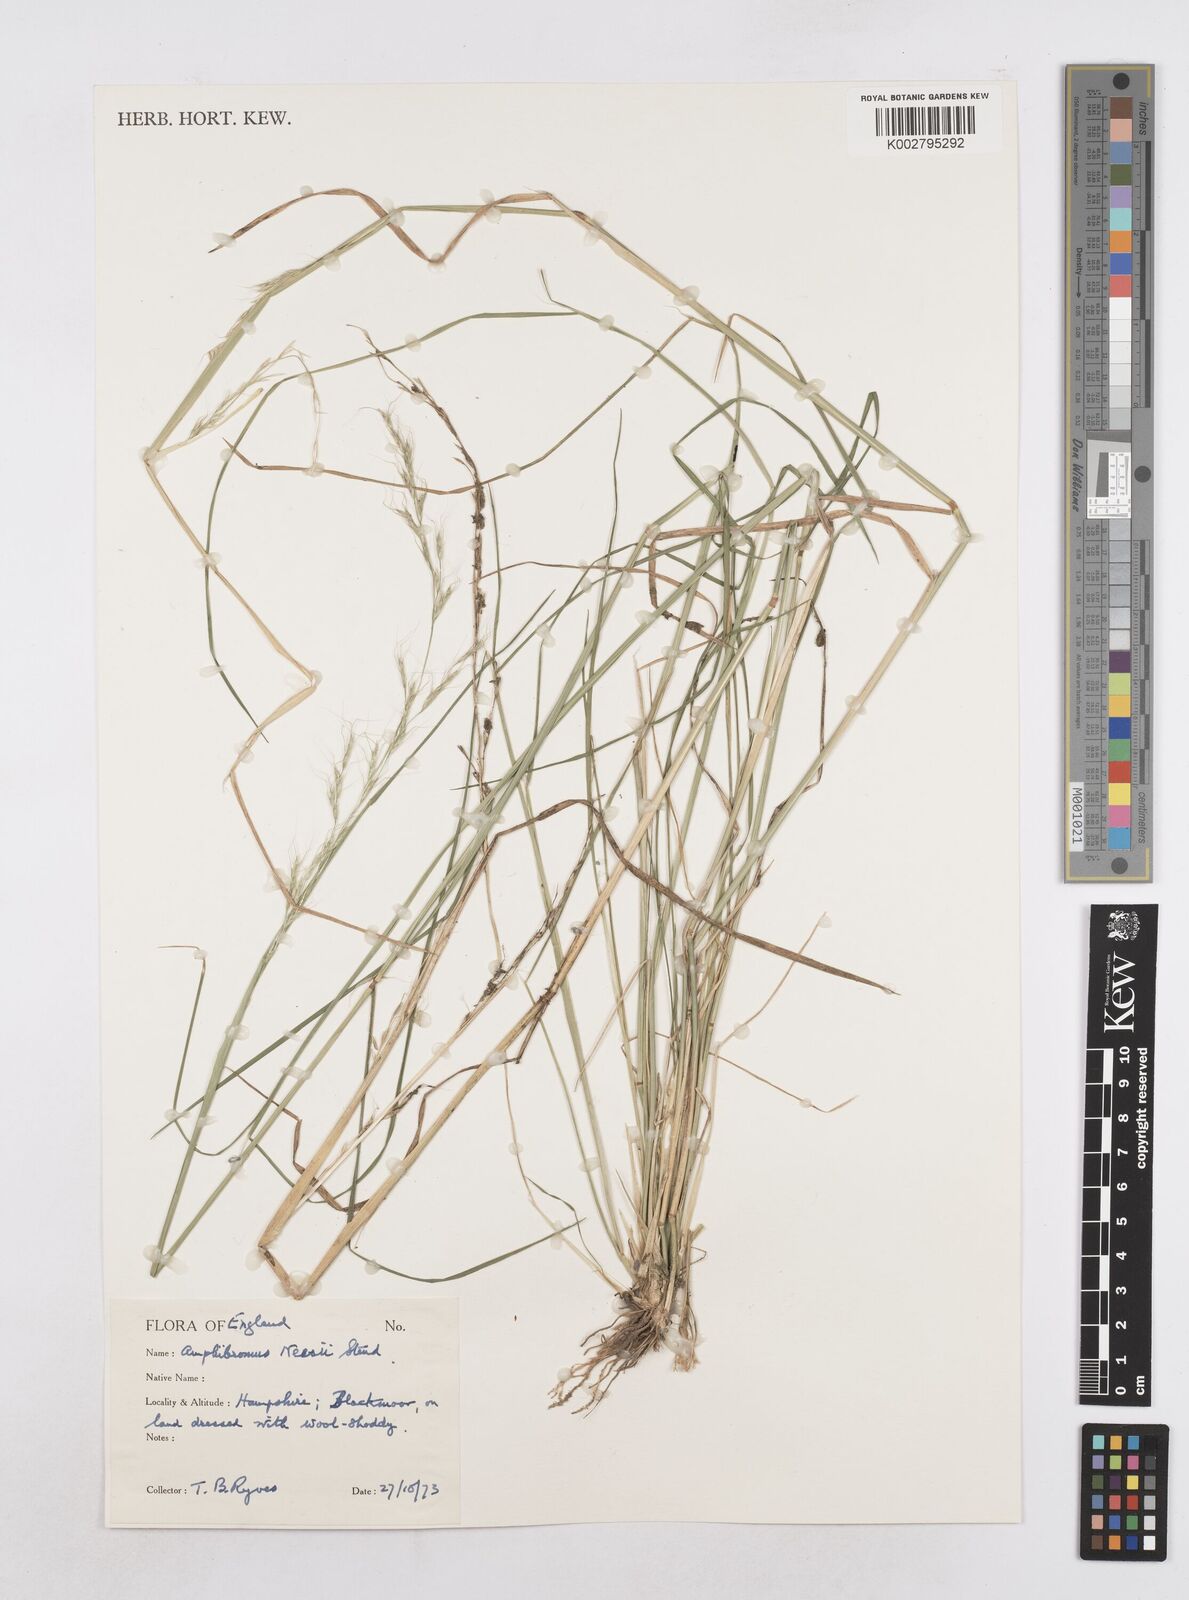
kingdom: Plantae
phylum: Tracheophyta
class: Liliopsida
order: Poales
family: Poaceae
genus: Amphibromus
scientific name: Amphibromus neesii
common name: Australian wallaby grass
